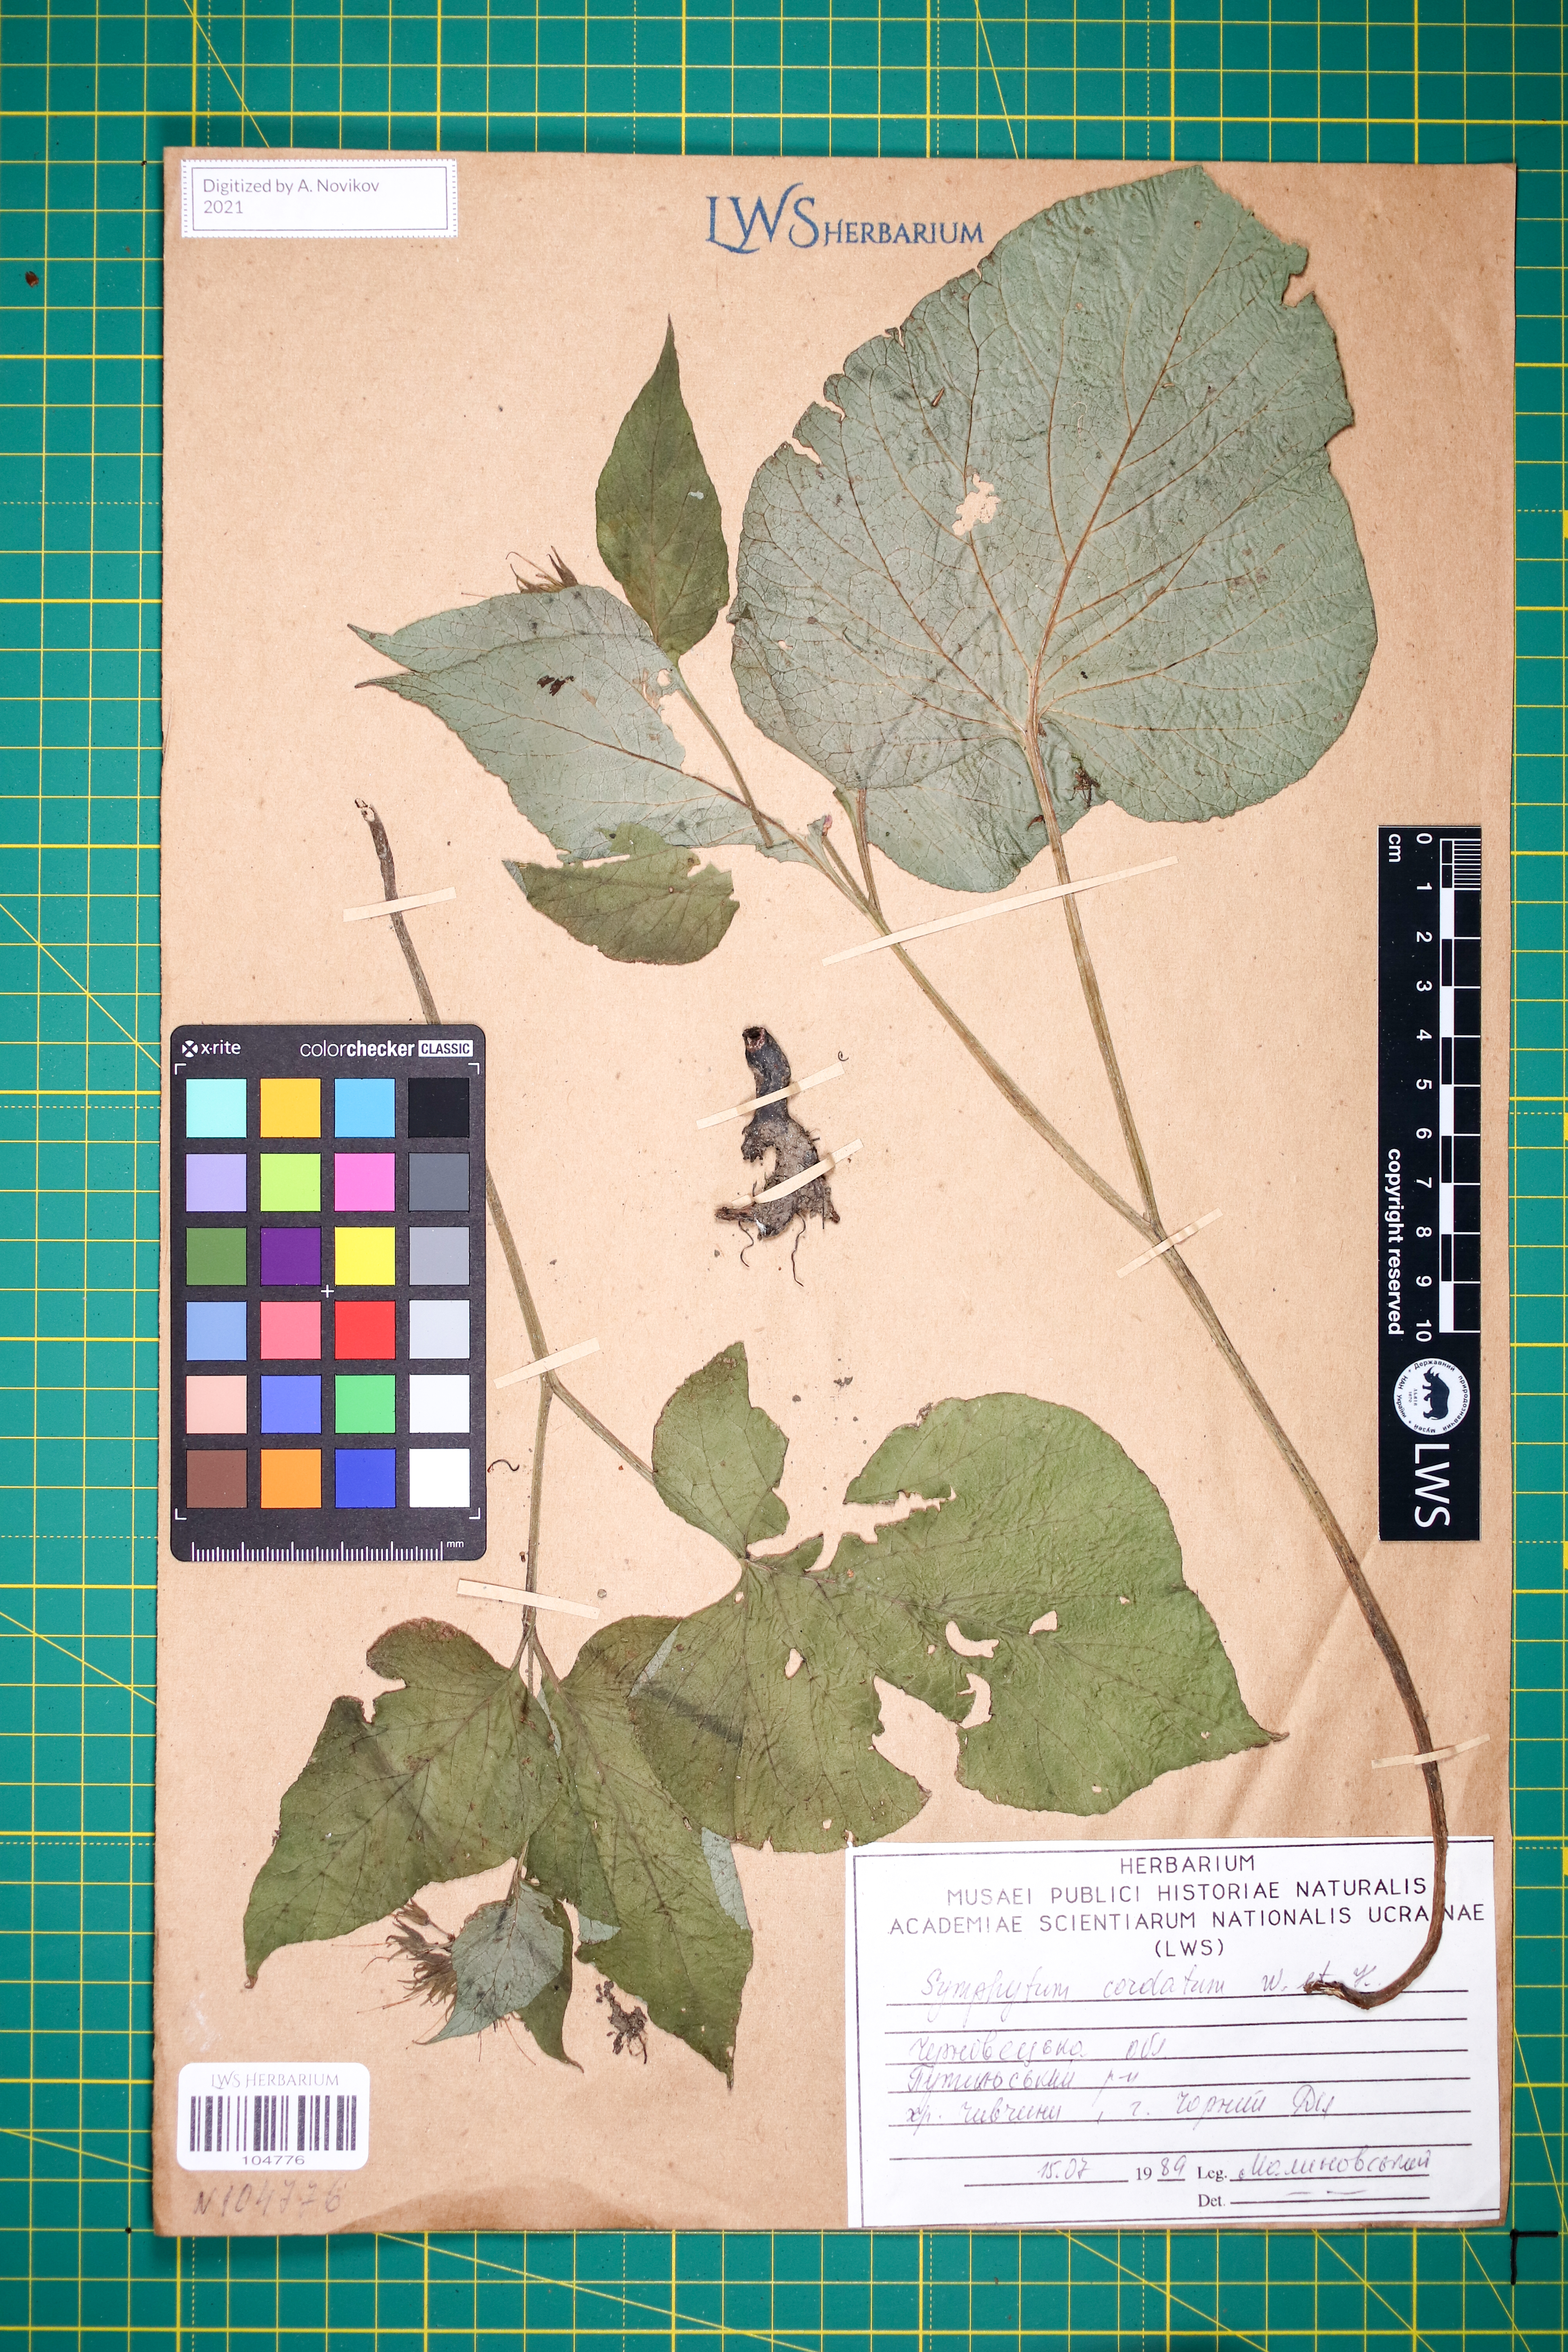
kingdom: Plantae
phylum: Tracheophyta
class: Magnoliopsida
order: Boraginales
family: Boraginaceae
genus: Symphytum
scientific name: Symphytum cordatum
